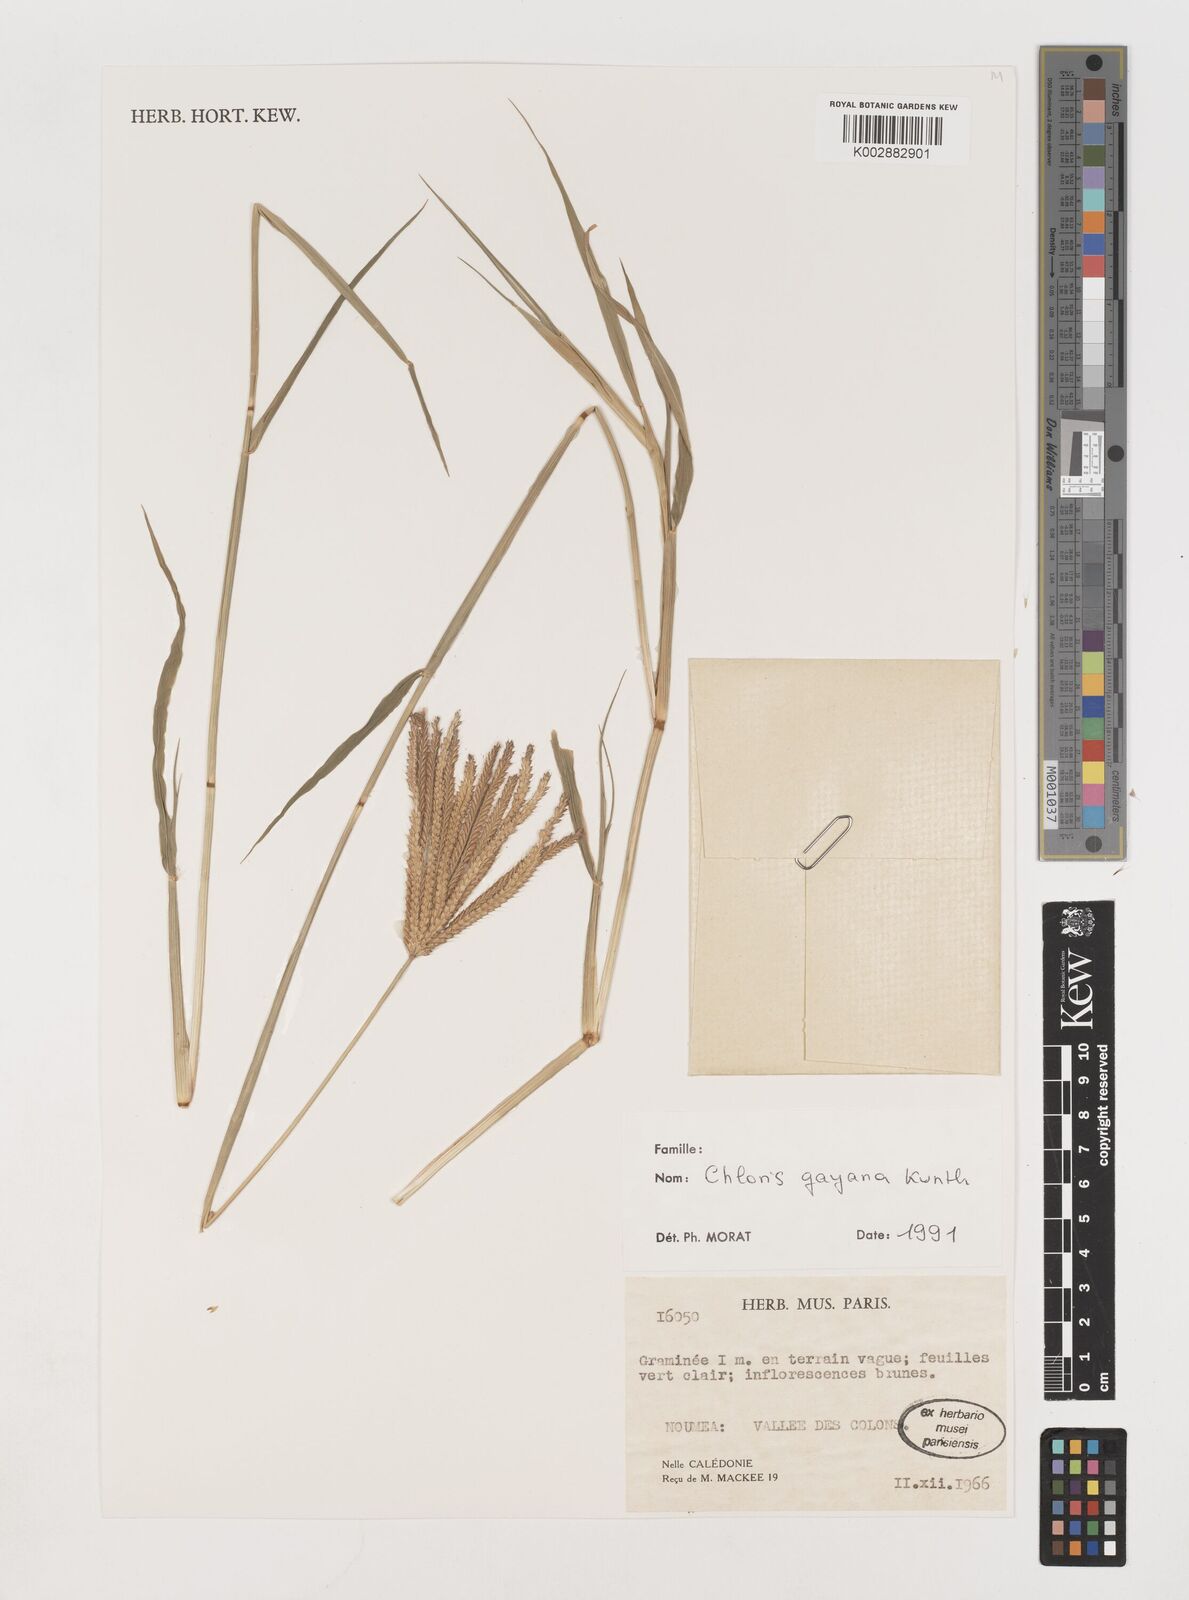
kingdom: Plantae
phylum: Tracheophyta
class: Liliopsida
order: Poales
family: Poaceae
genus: Chloris
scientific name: Chloris gayana
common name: Rhodes grass
